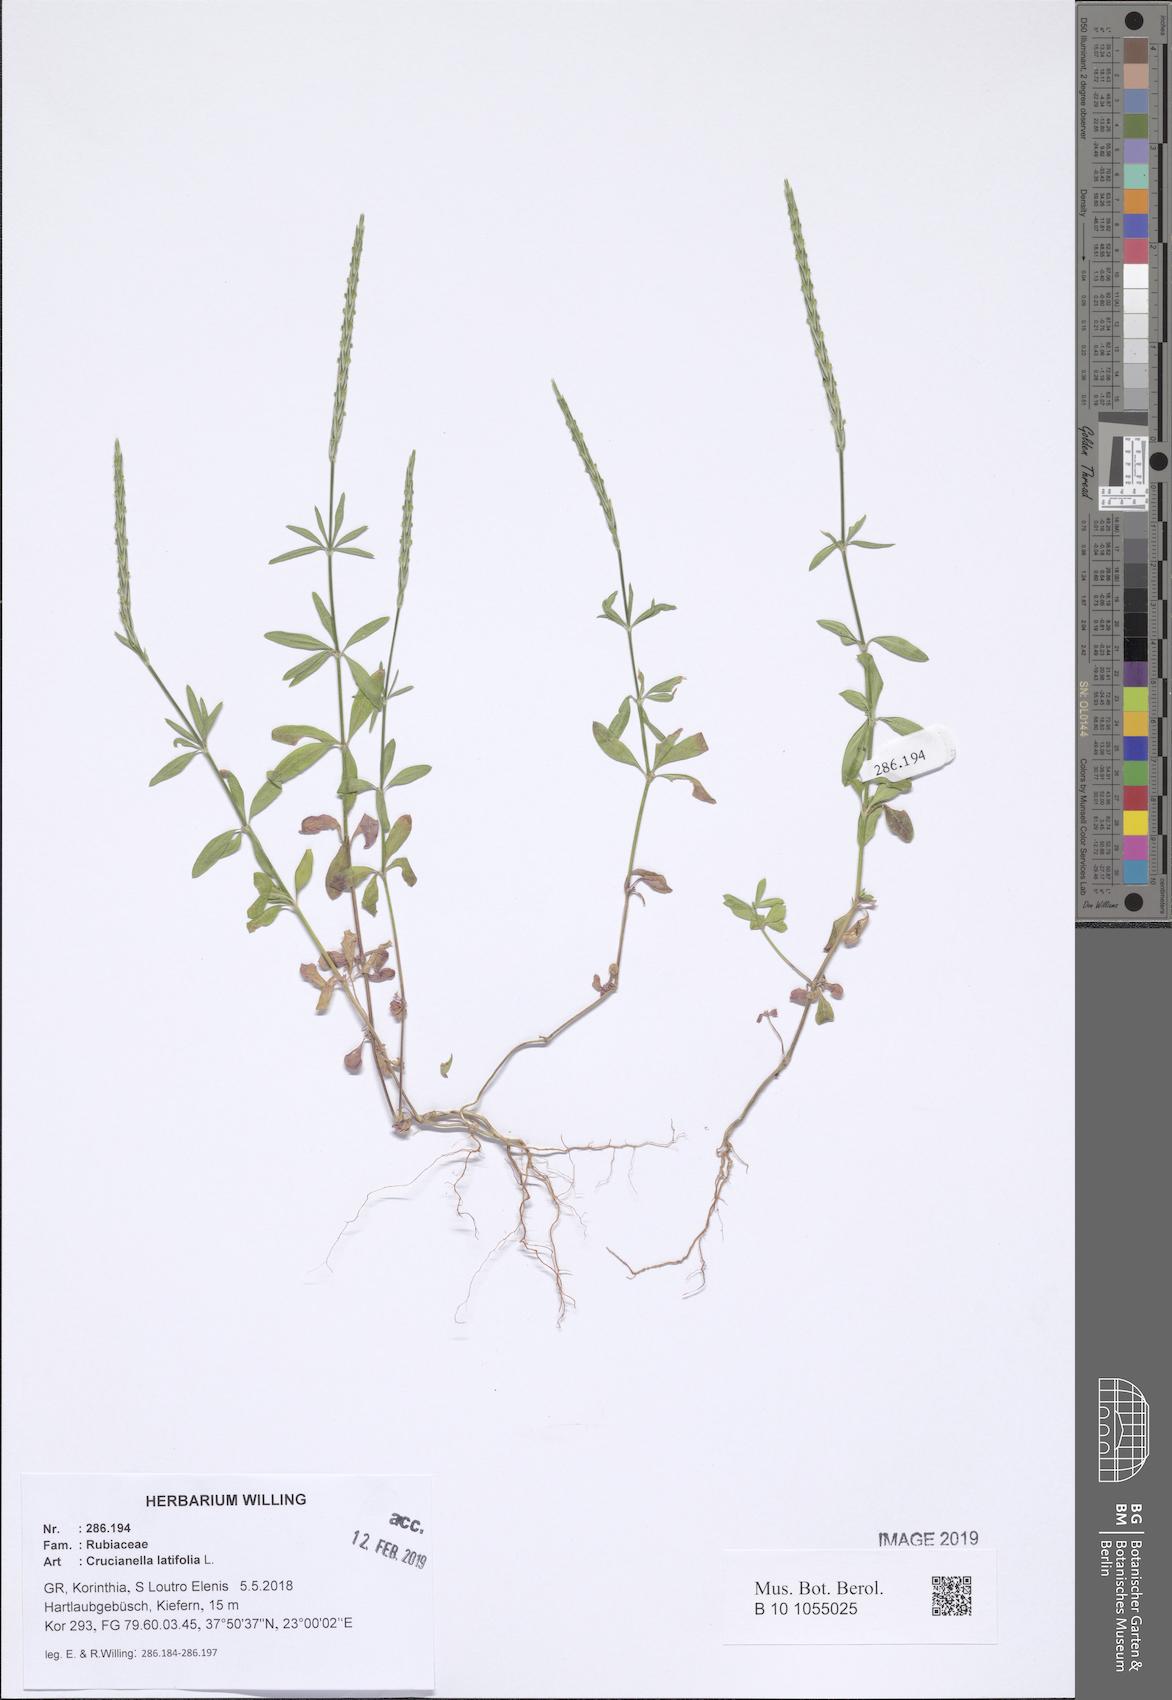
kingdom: Plantae
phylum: Tracheophyta
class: Magnoliopsida
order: Gentianales
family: Rubiaceae
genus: Crucianella
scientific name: Crucianella latifolia
